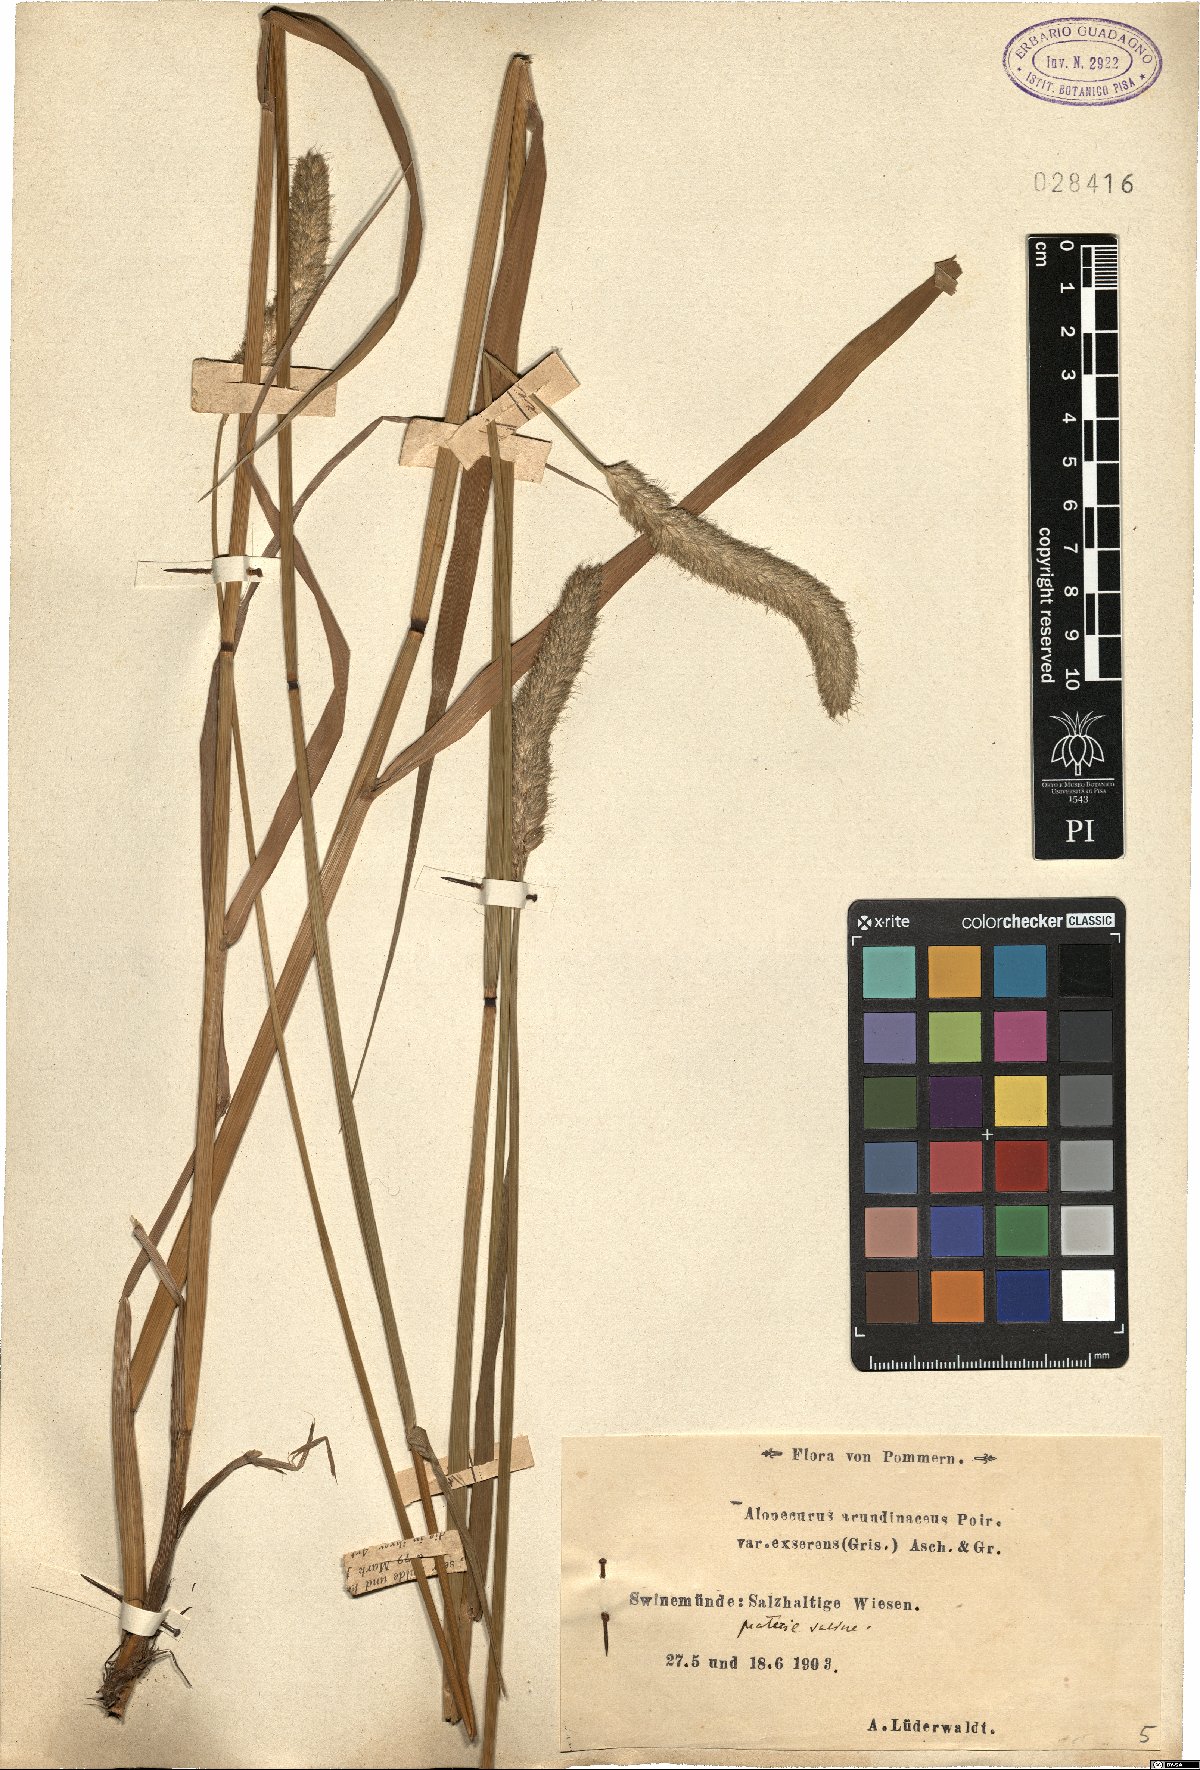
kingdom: Plantae
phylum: Tracheophyta
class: Liliopsida
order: Poales
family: Poaceae
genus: Alopecurus
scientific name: Alopecurus arundinaceus
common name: Creeping meadow foxtail
